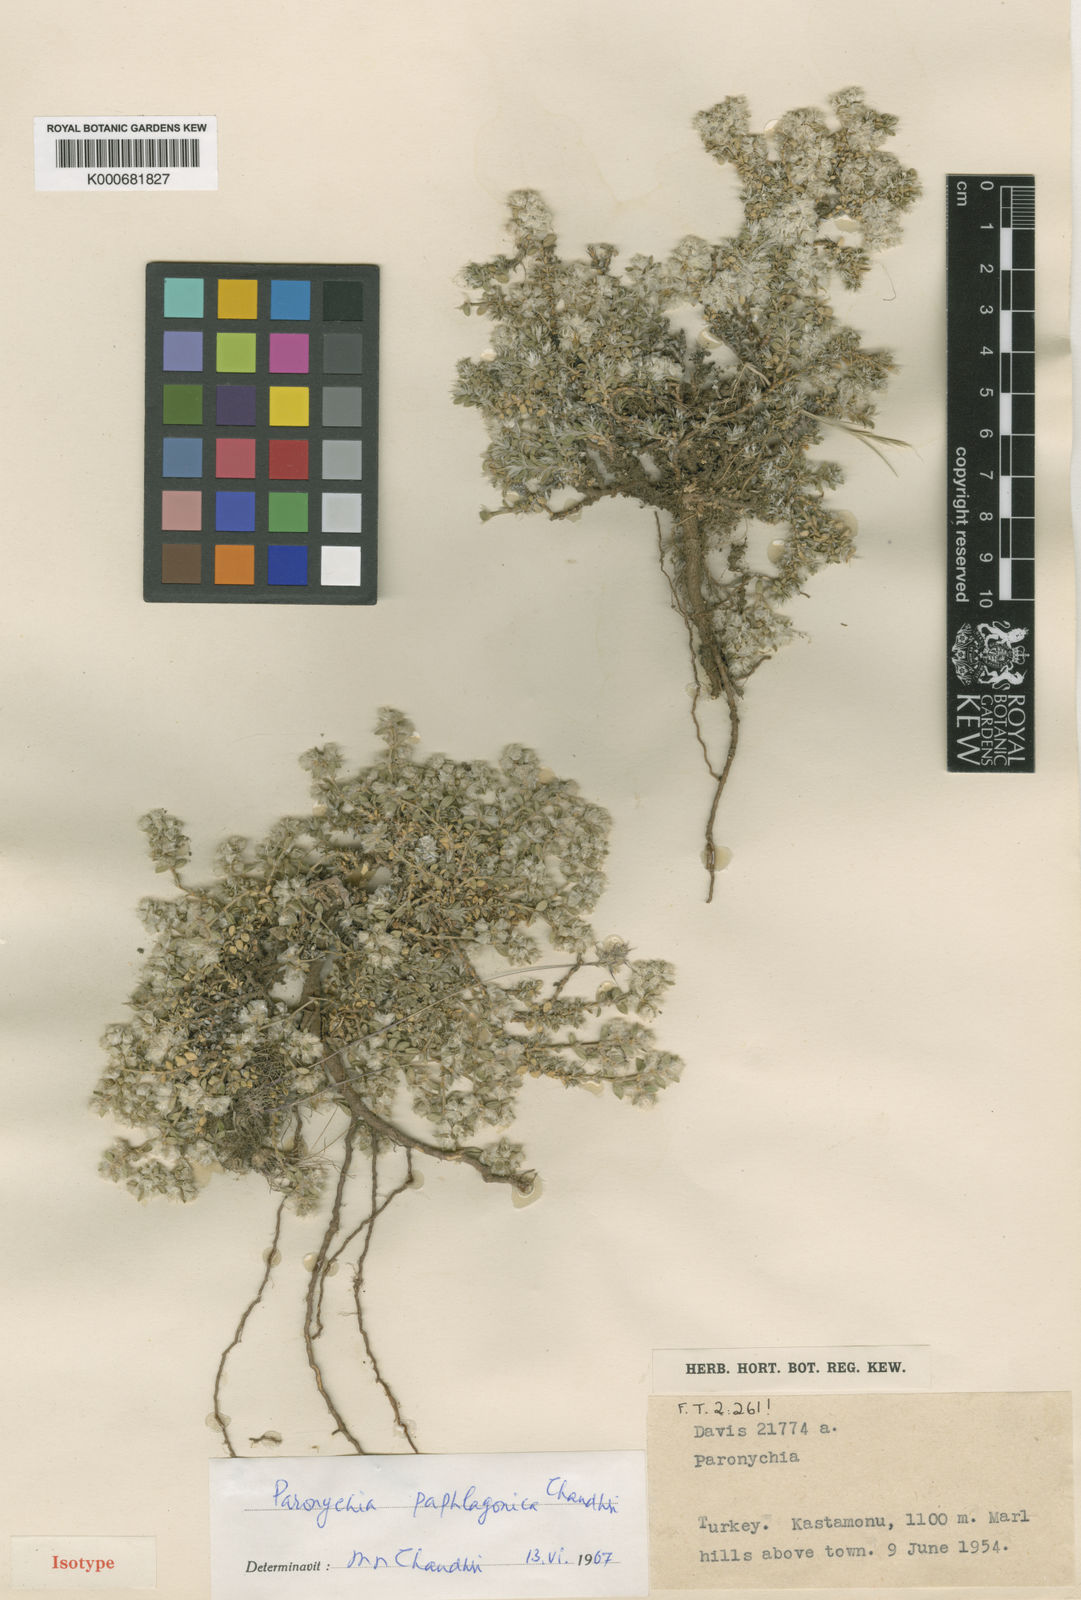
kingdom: Plantae
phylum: Tracheophyta
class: Magnoliopsida
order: Caryophyllales
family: Caryophyllaceae
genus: Paronychia
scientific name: Paronychia paphlagonica
